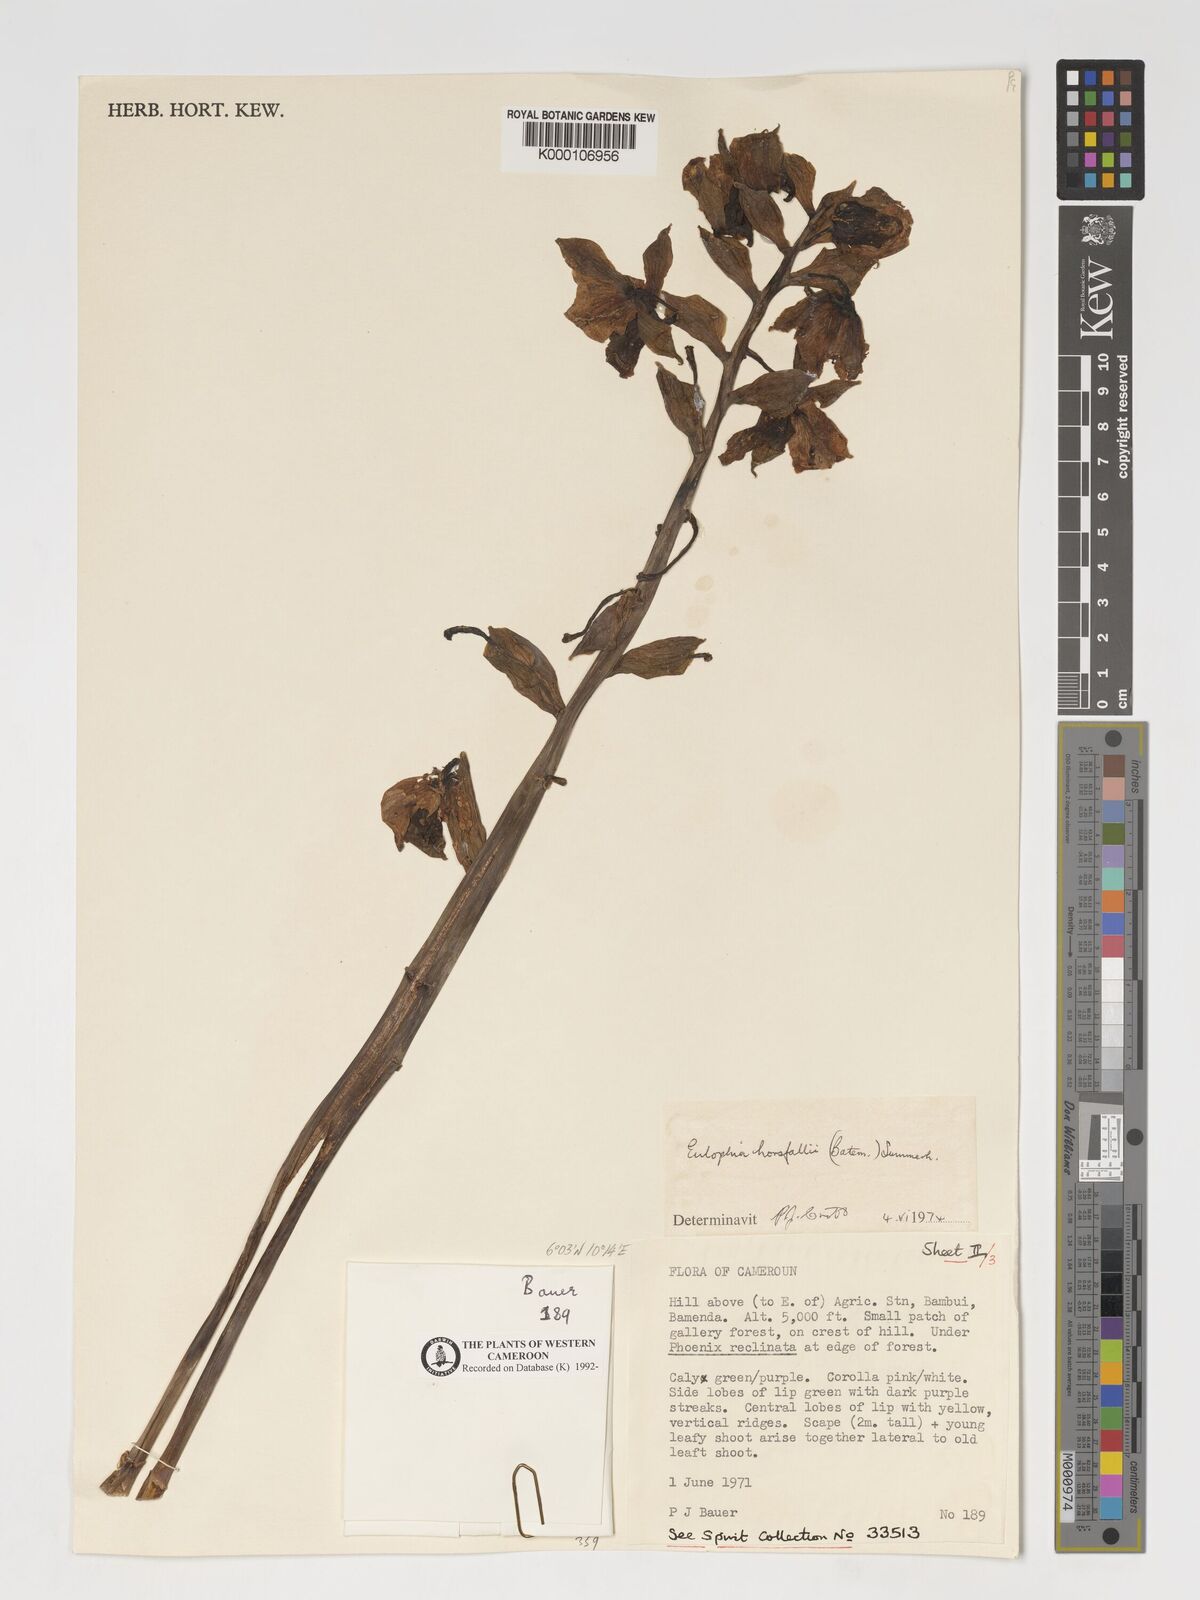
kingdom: Plantae
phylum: Tracheophyta
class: Liliopsida
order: Asparagales
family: Orchidaceae
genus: Eulophia
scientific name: Eulophia horsfallii
